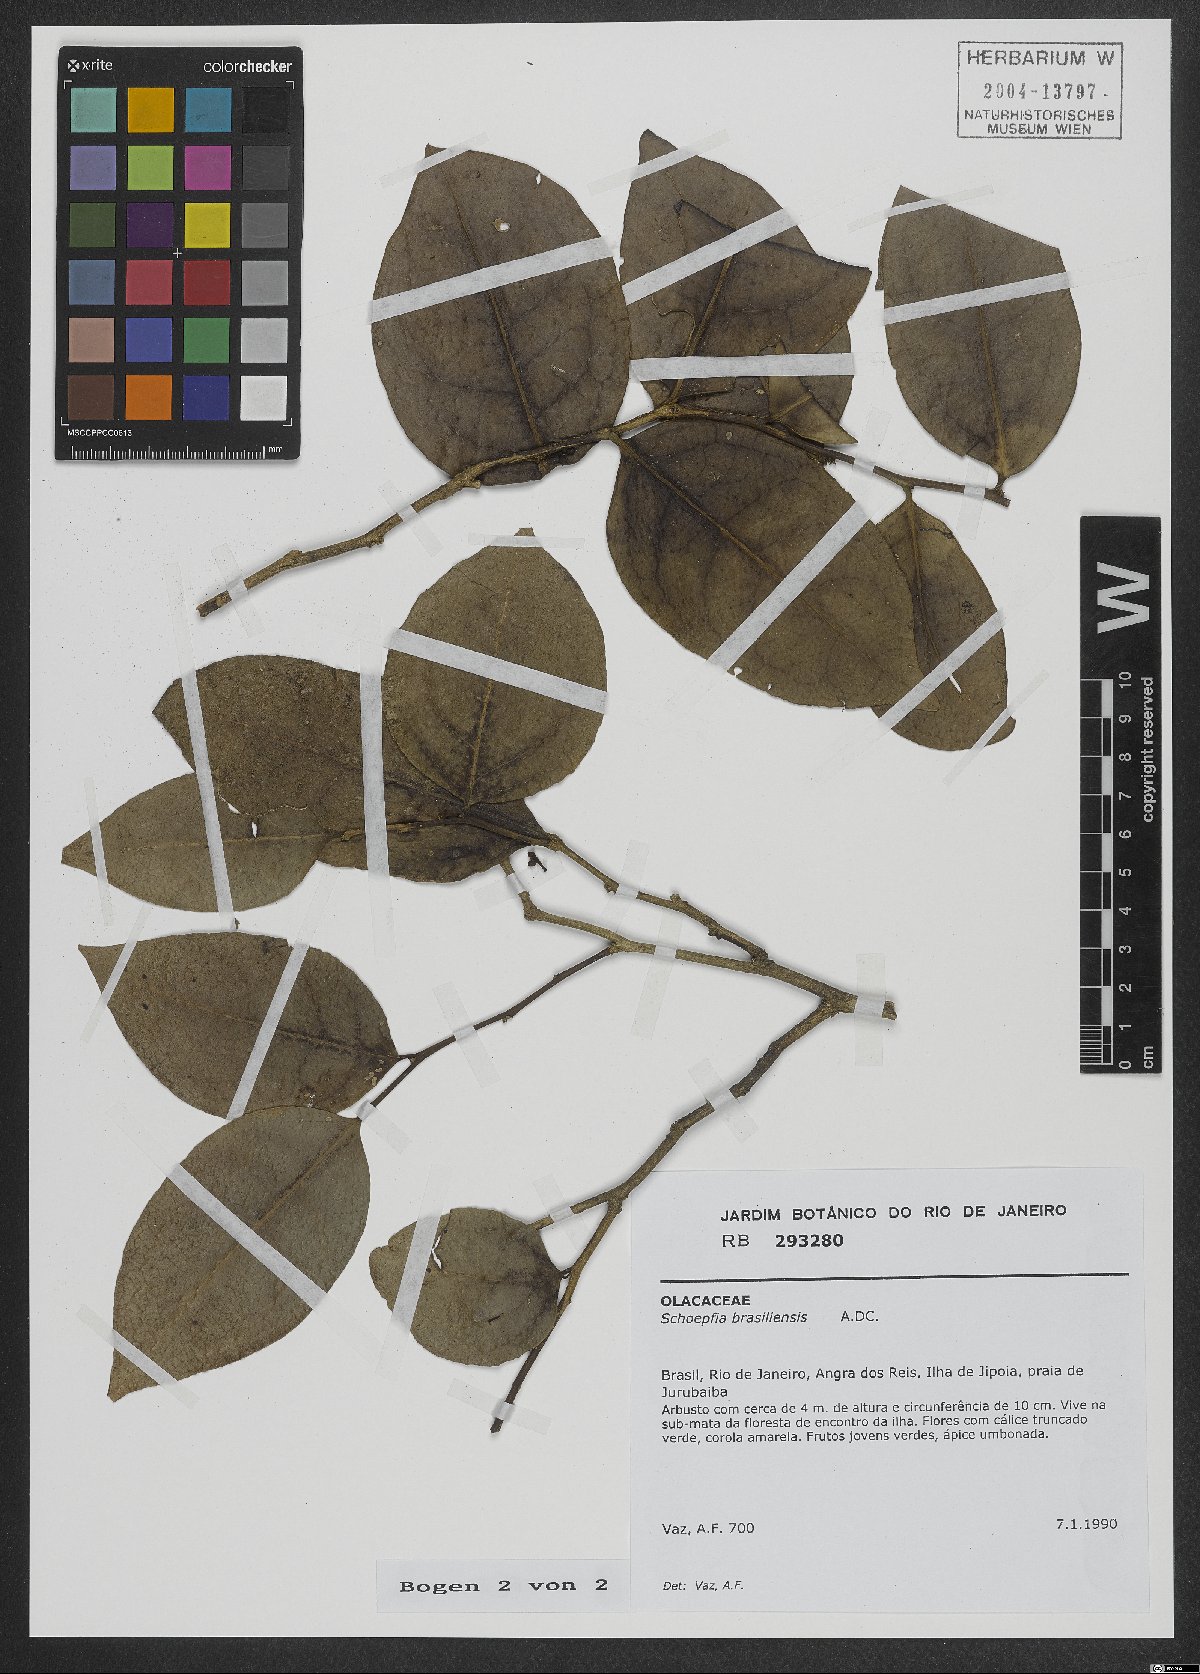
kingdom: Plantae
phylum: Tracheophyta
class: Magnoliopsida
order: Santalales
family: Schoepfiaceae
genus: Schoepfia
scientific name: Schoepfia brasiliensis
